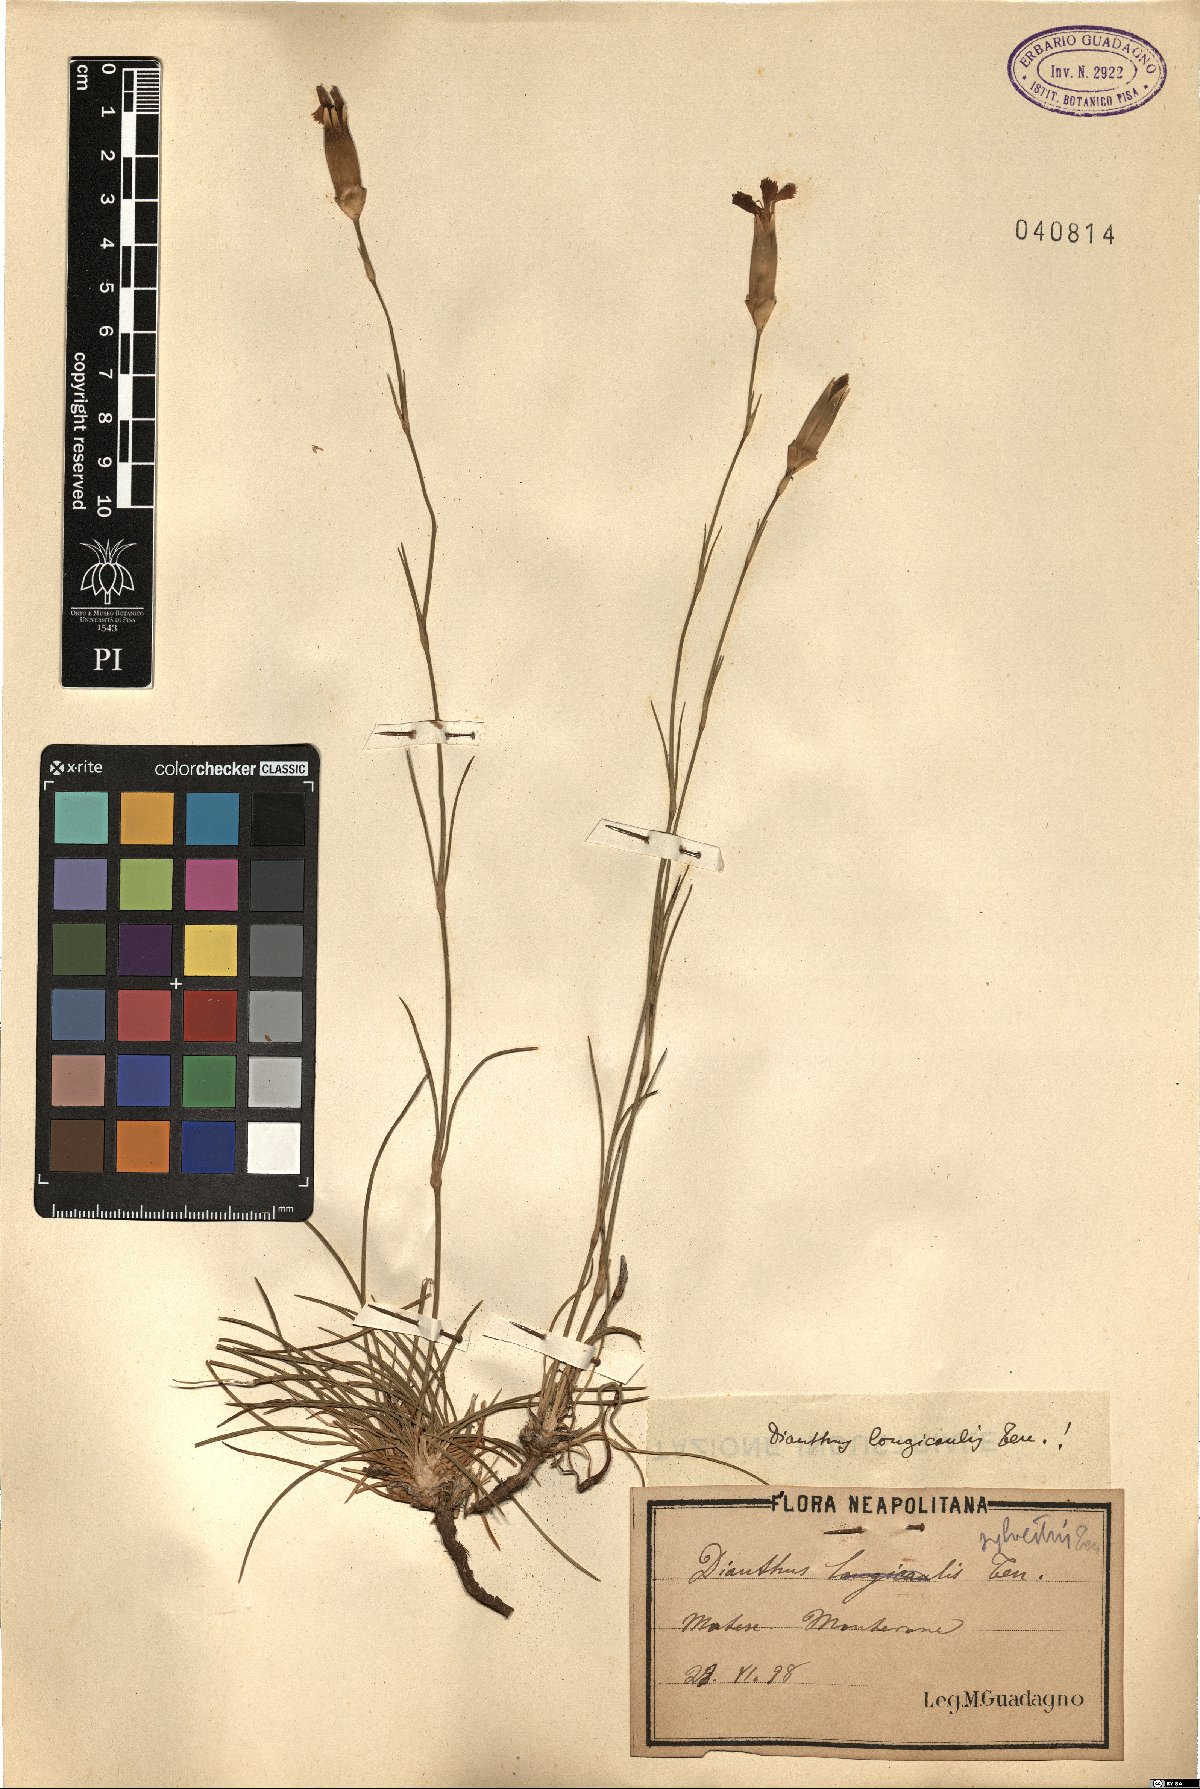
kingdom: Plantae
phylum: Tracheophyta
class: Magnoliopsida
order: Caryophyllales
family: Caryophyllaceae
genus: Dianthus
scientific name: Dianthus virgineus
